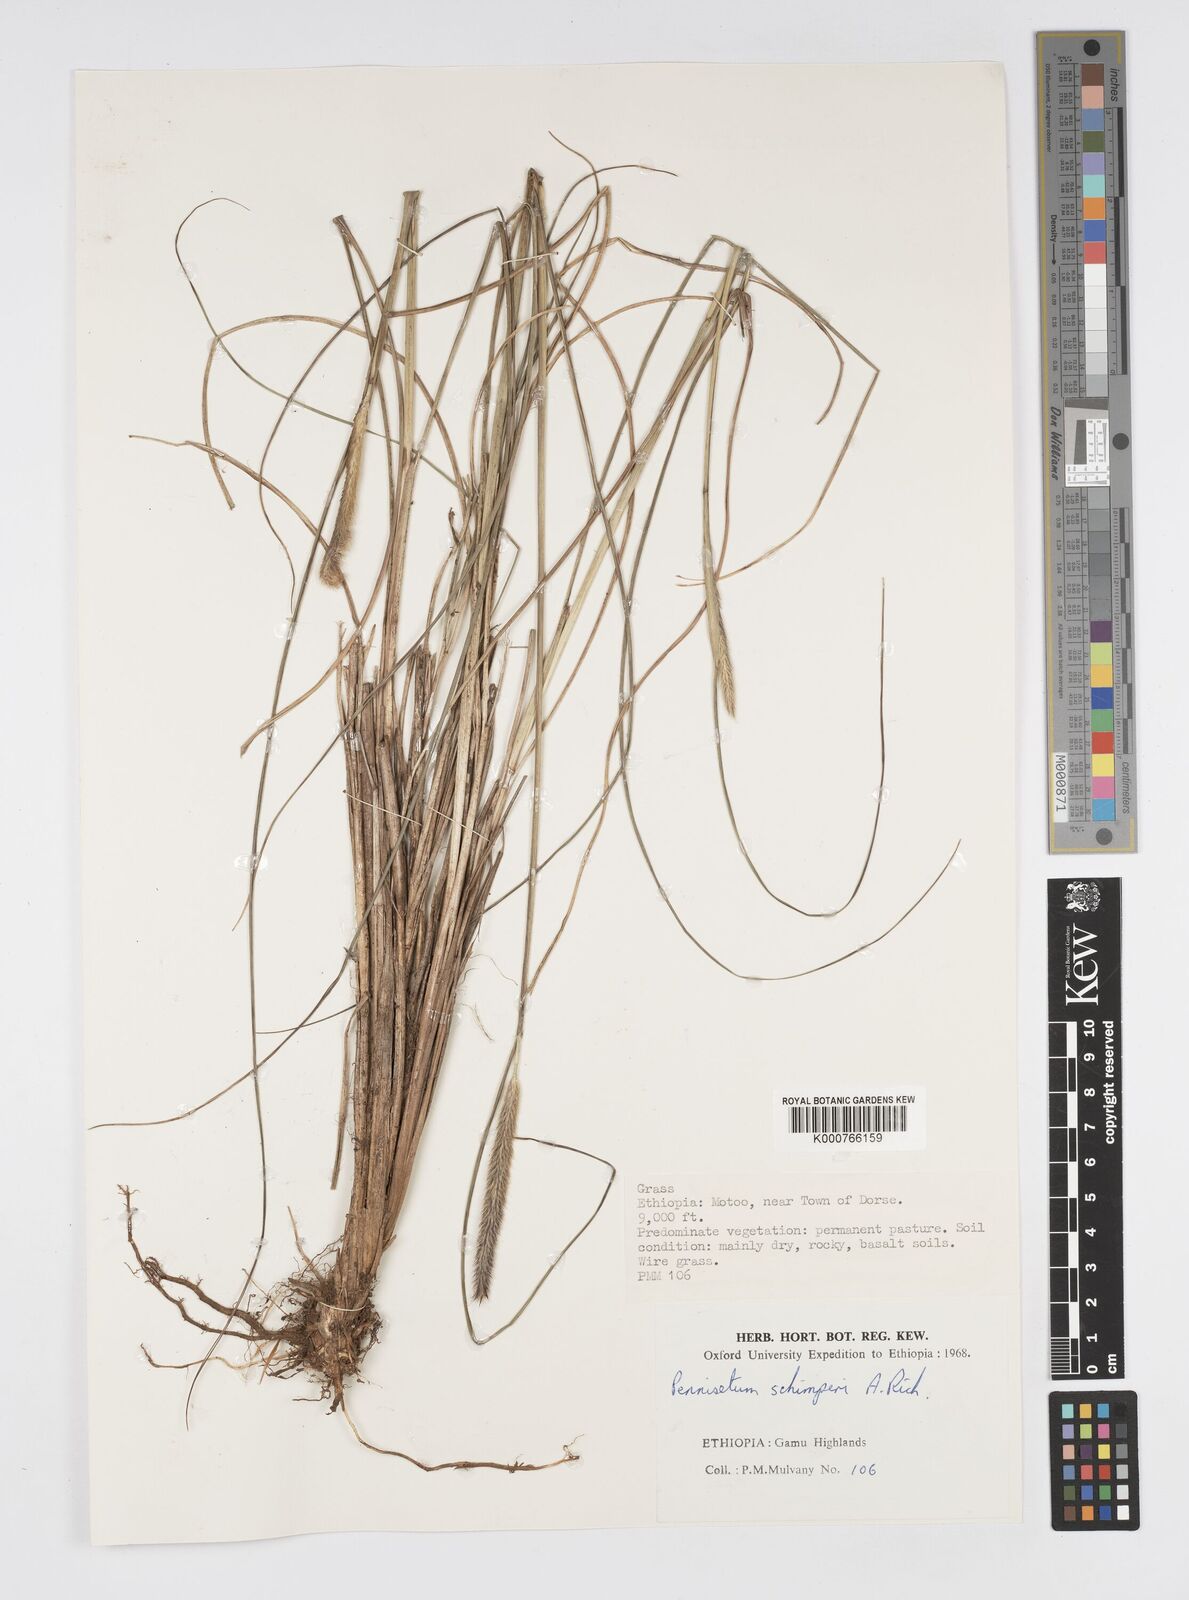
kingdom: Plantae
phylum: Tracheophyta
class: Liliopsida
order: Poales
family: Poaceae
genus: Cenchrus
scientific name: Cenchrus sphacelatus
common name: Bulgras
